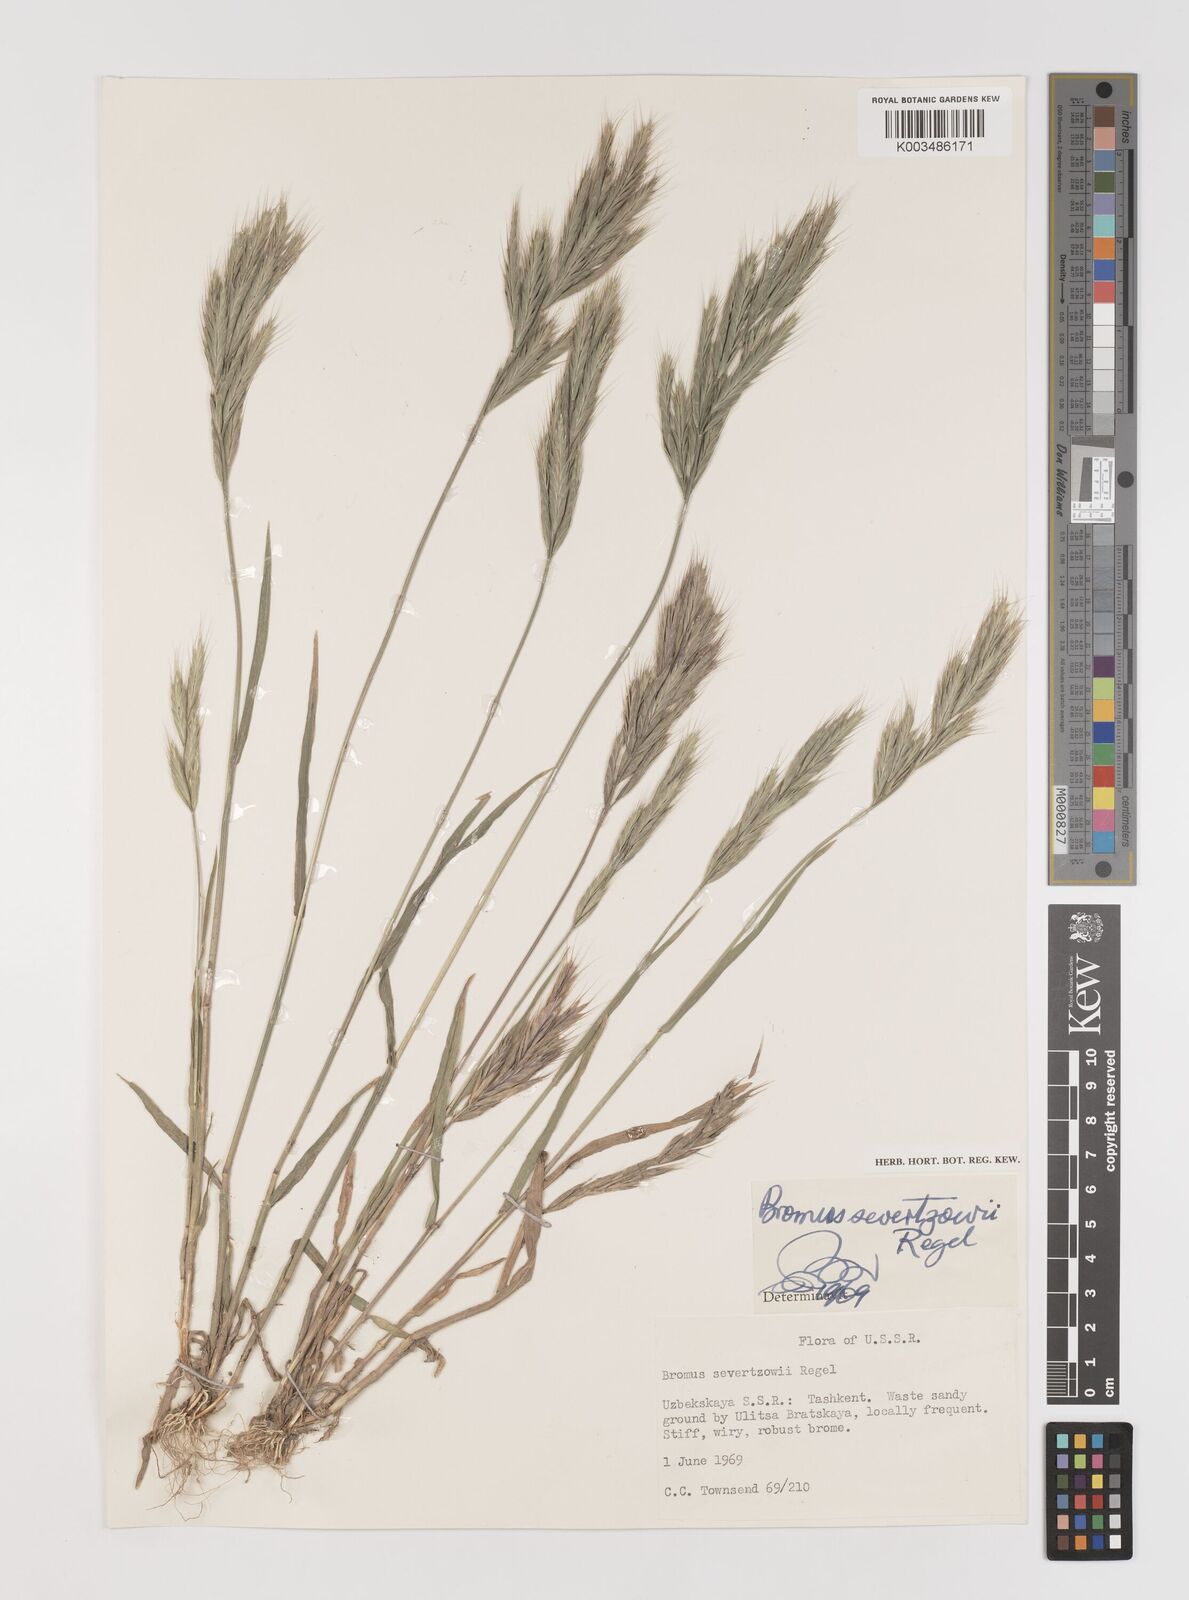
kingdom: Plantae
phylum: Tracheophyta
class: Liliopsida
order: Poales
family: Poaceae
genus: Bromus
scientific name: Bromus sewerzowii
